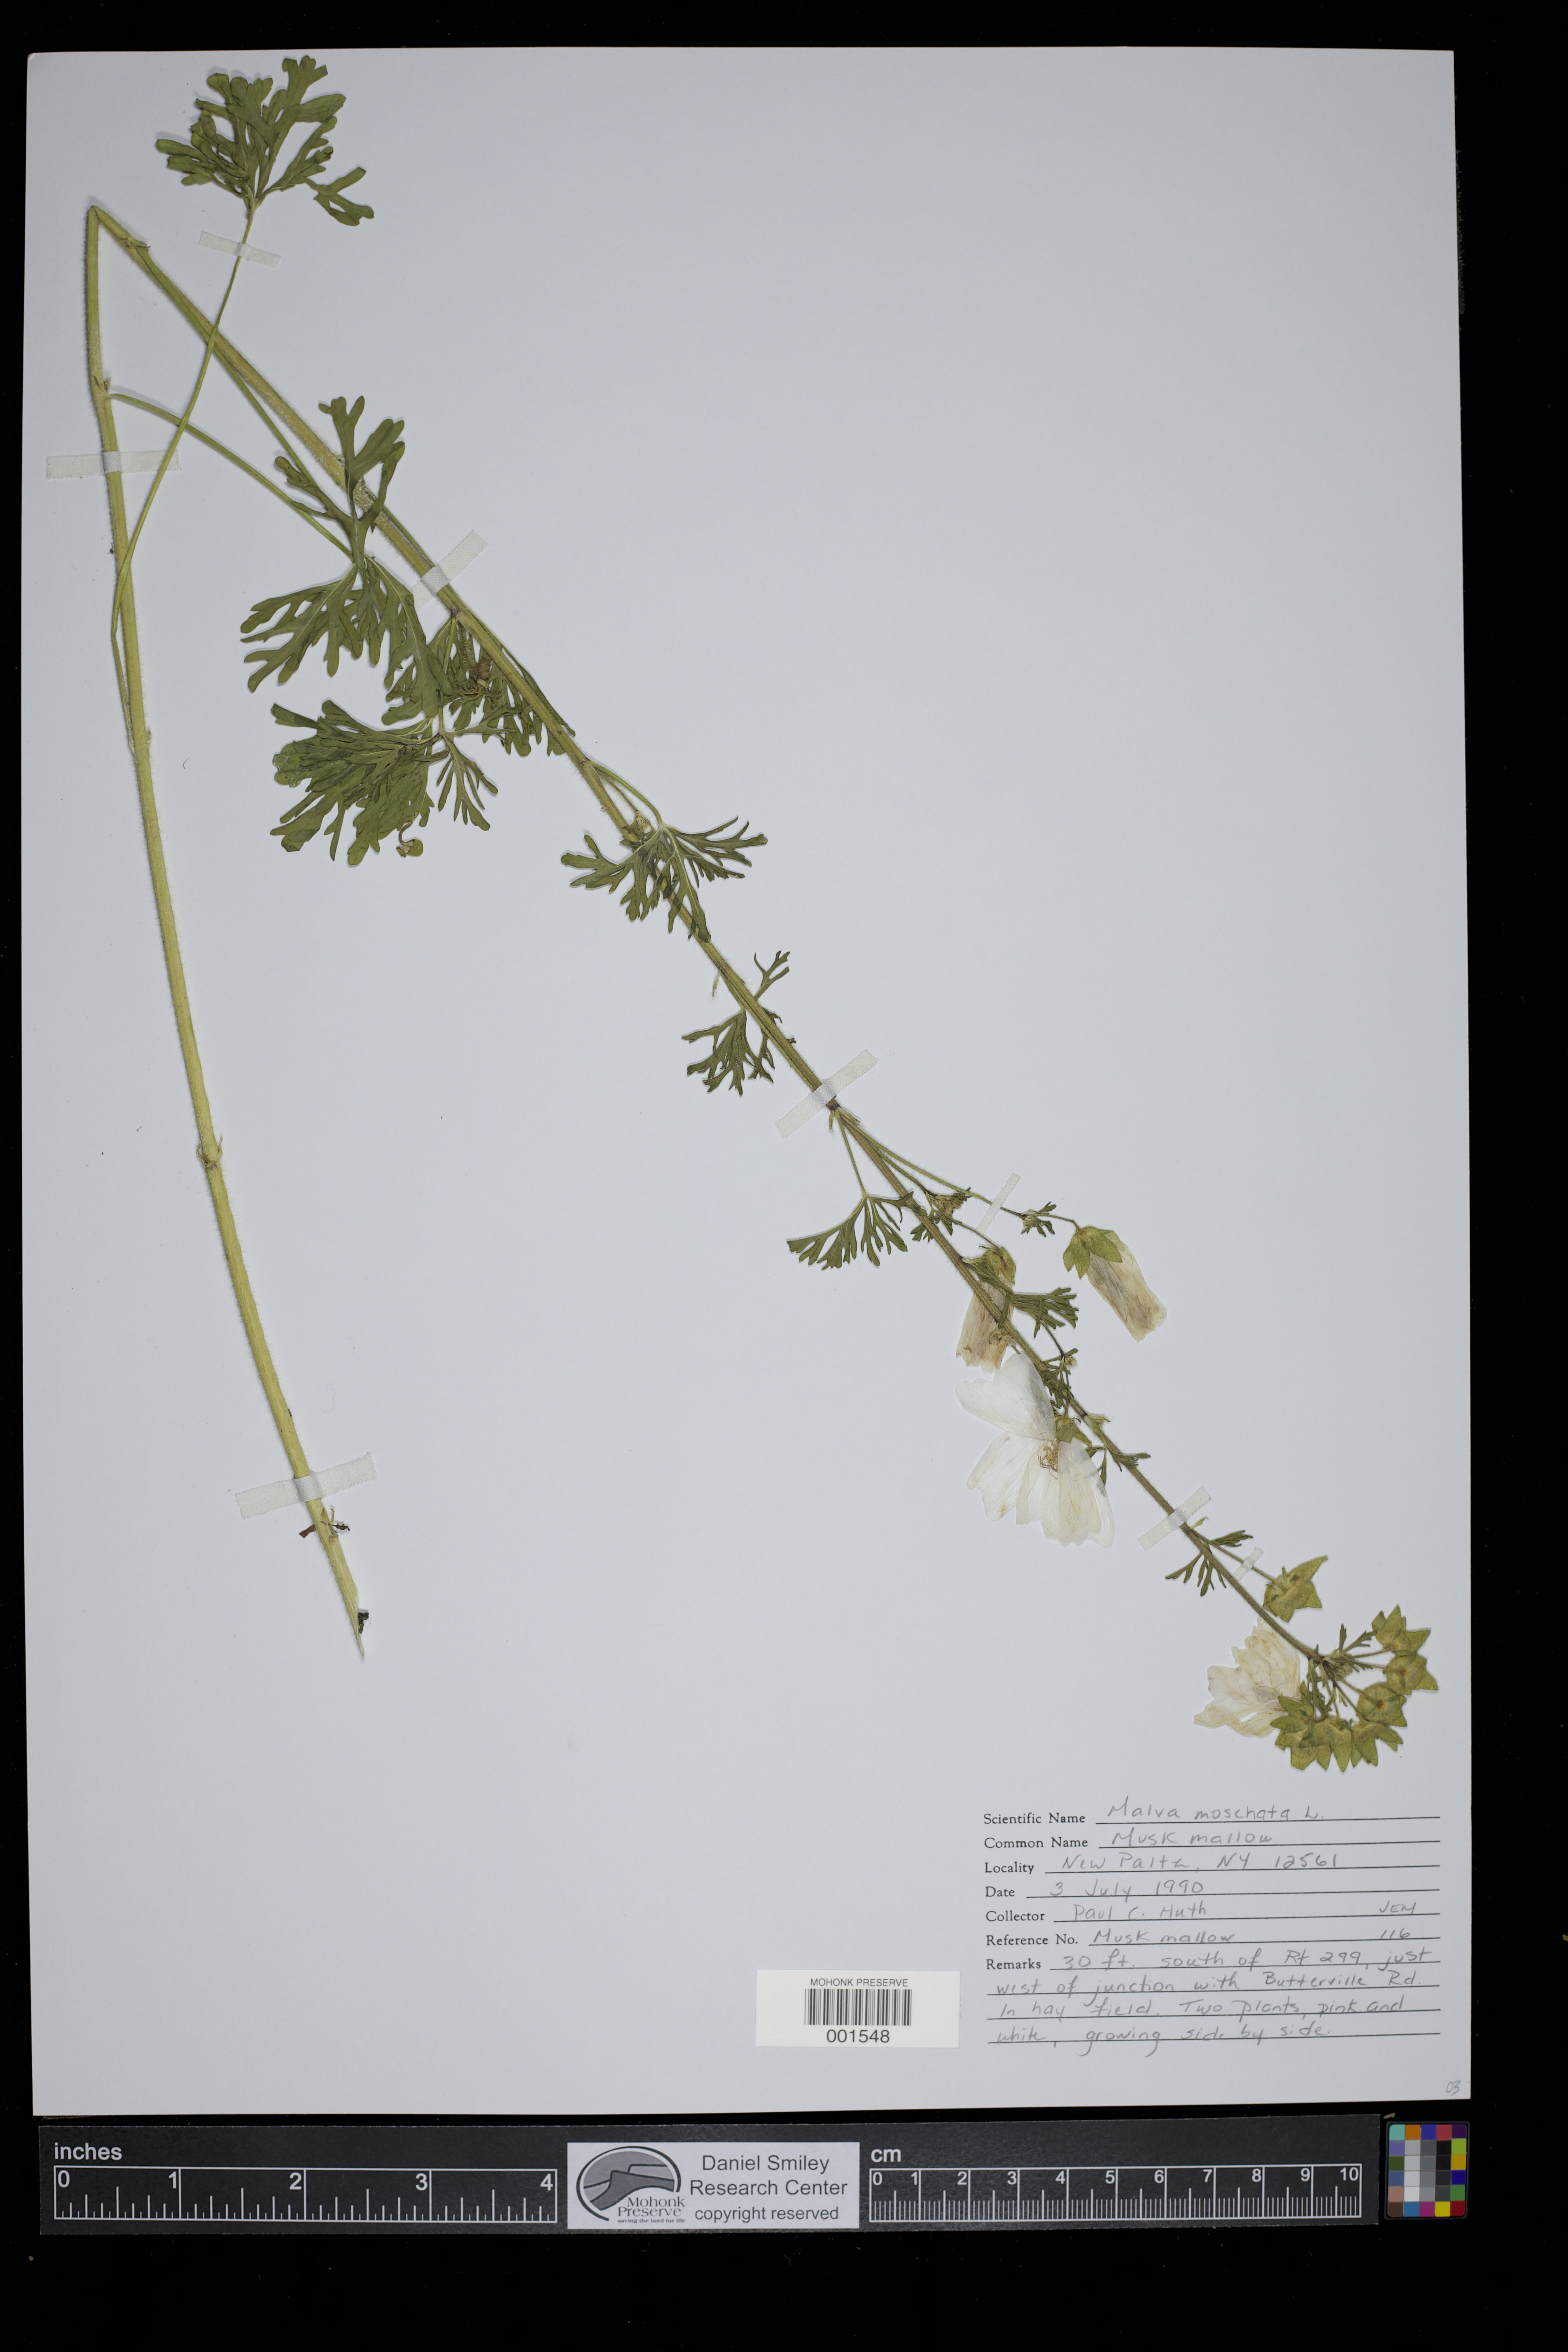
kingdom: Plantae
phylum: Tracheophyta
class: Magnoliopsida
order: Malvales
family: Malvaceae
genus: Malva
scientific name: Malva moschata
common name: Musk mallow
